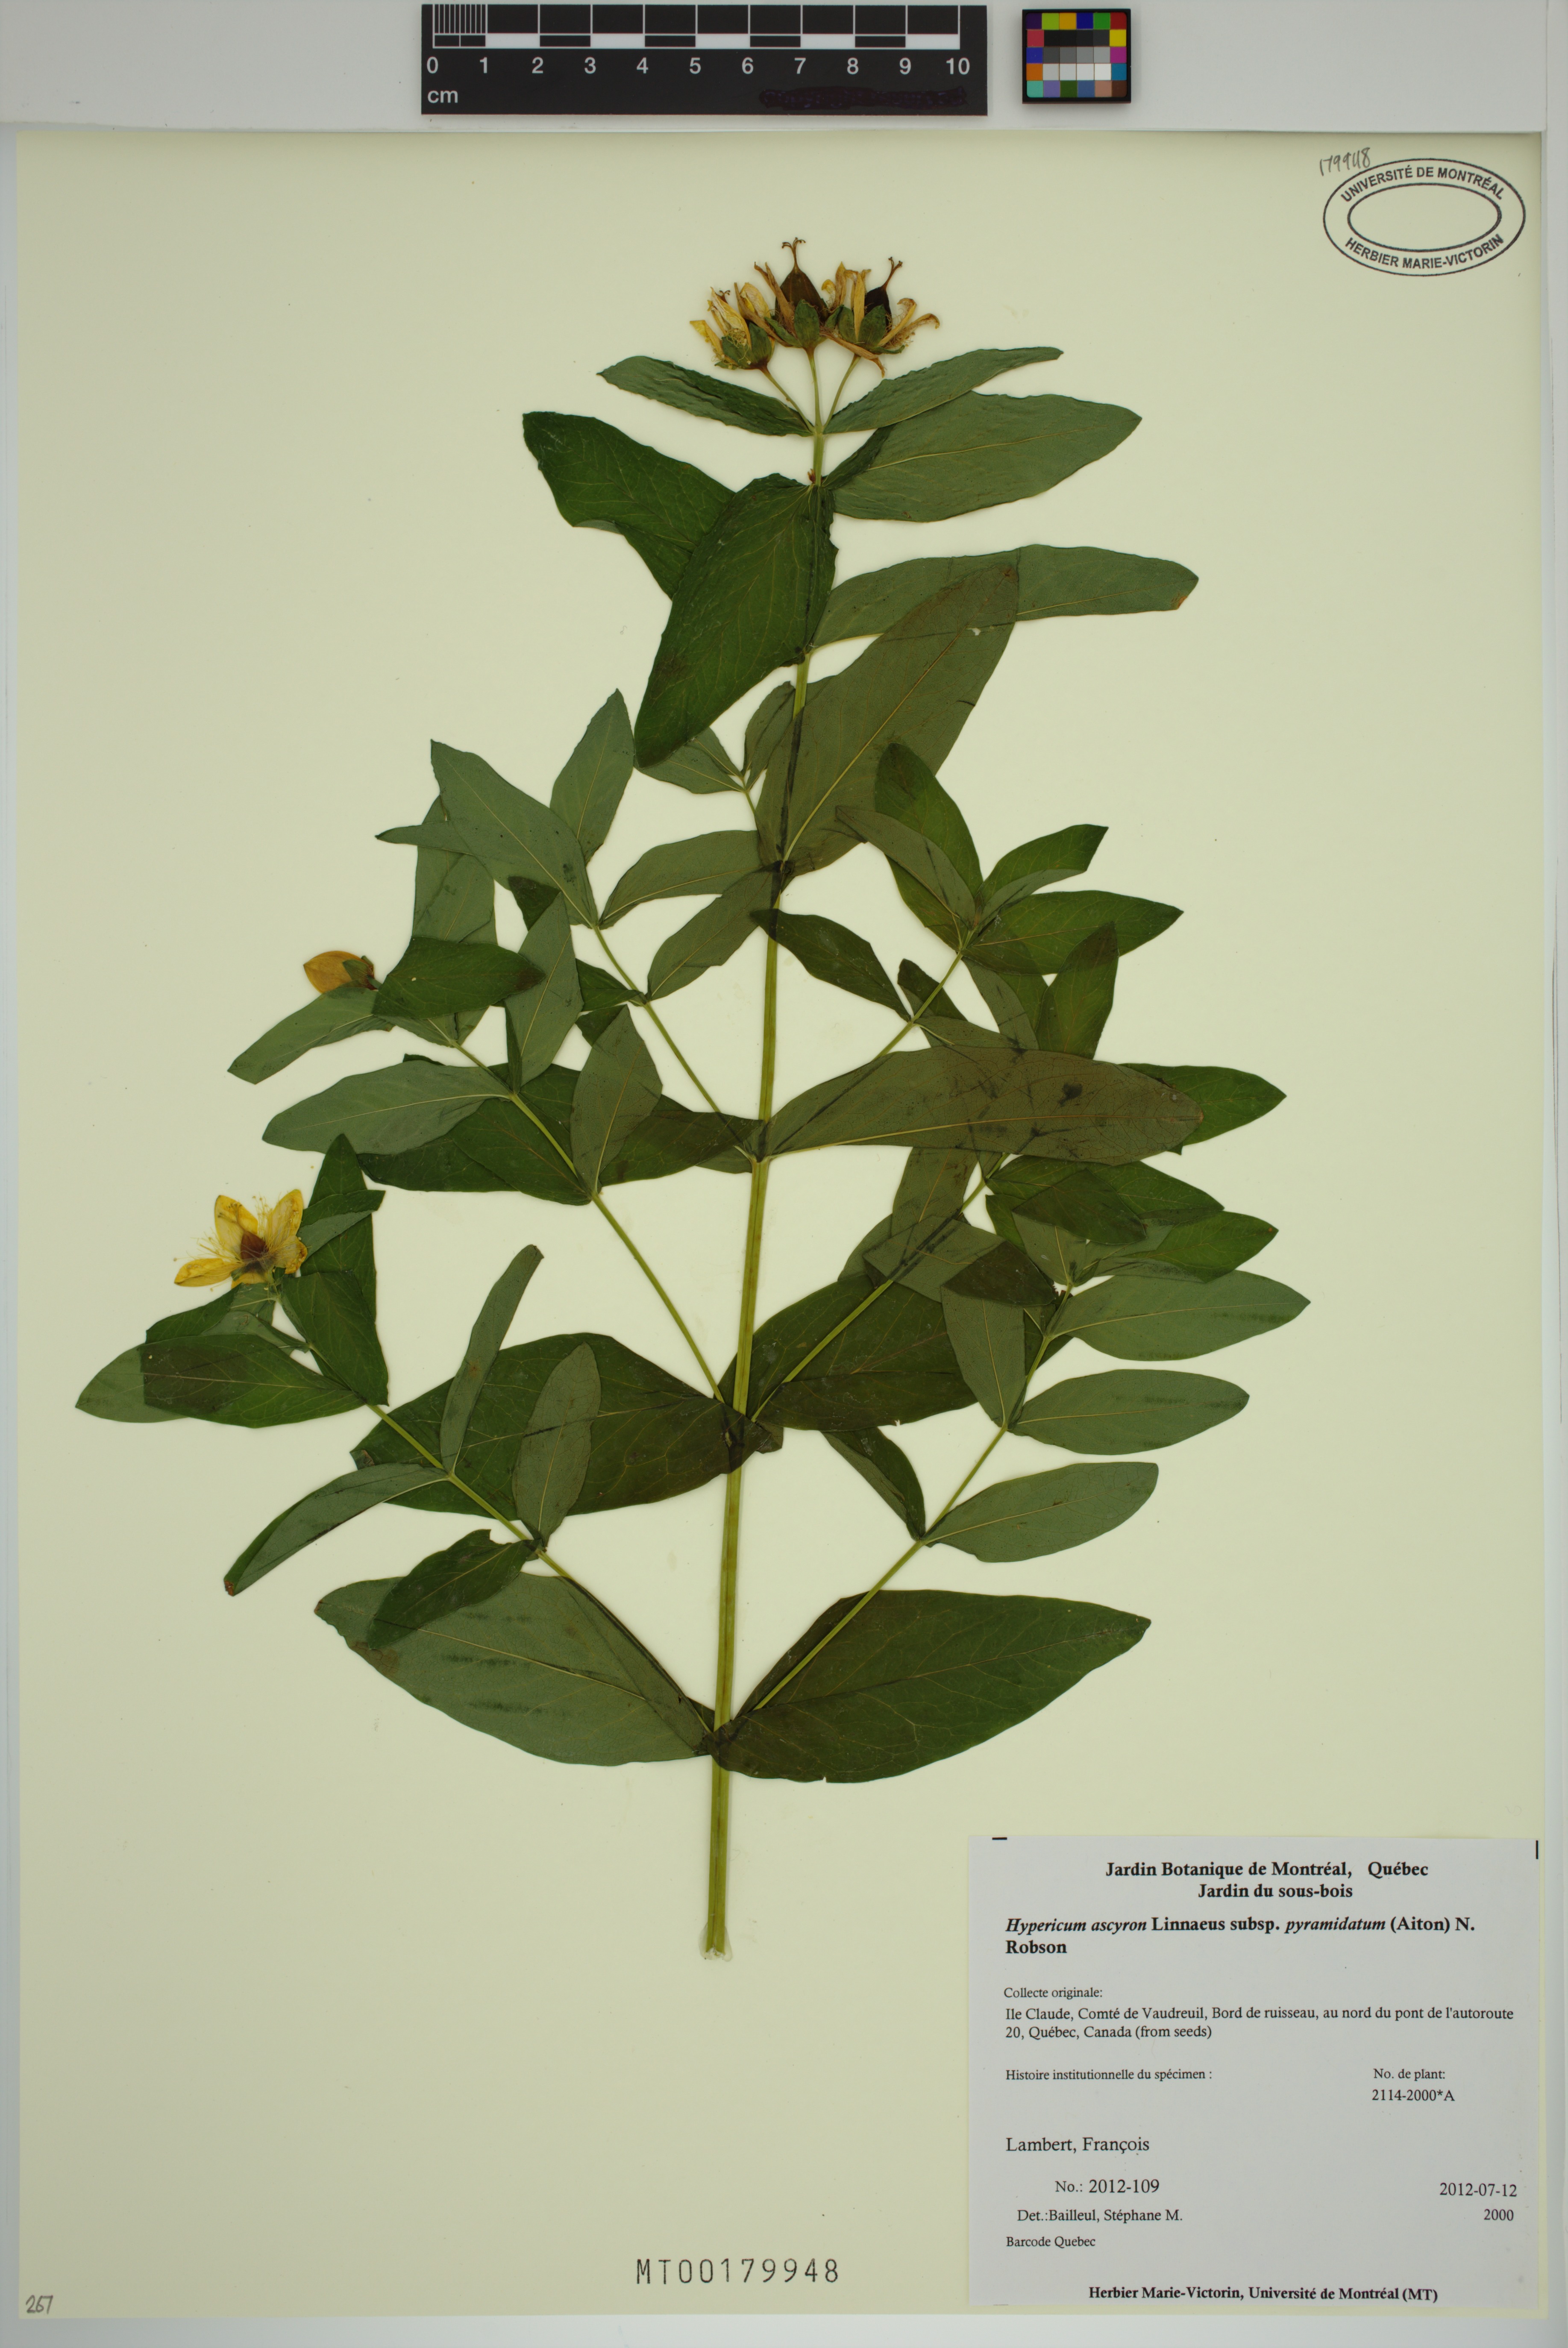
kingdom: Plantae
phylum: Tracheophyta
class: Magnoliopsida
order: Malpighiales
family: Hypericaceae
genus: Hypericum
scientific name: Hypericum ascyron
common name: Giant st. john's-wort
